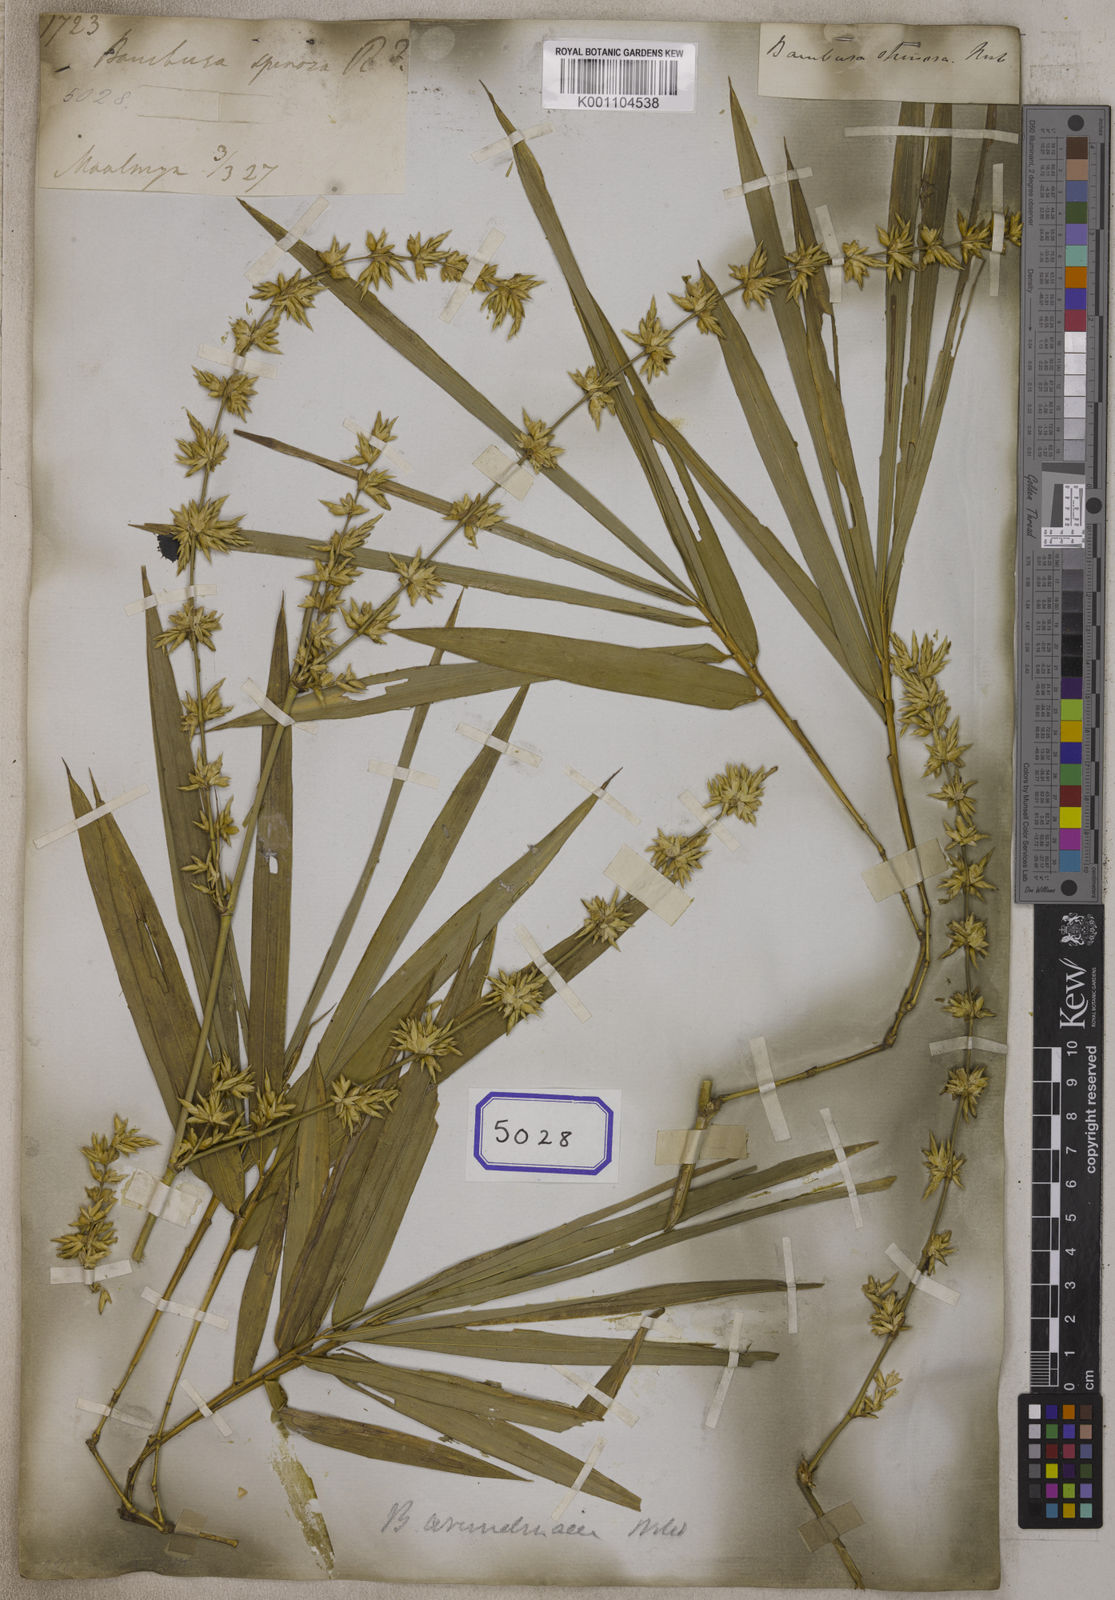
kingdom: Plantae
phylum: Tracheophyta
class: Liliopsida
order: Poales
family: Poaceae
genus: Bambusa
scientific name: Bambusa
